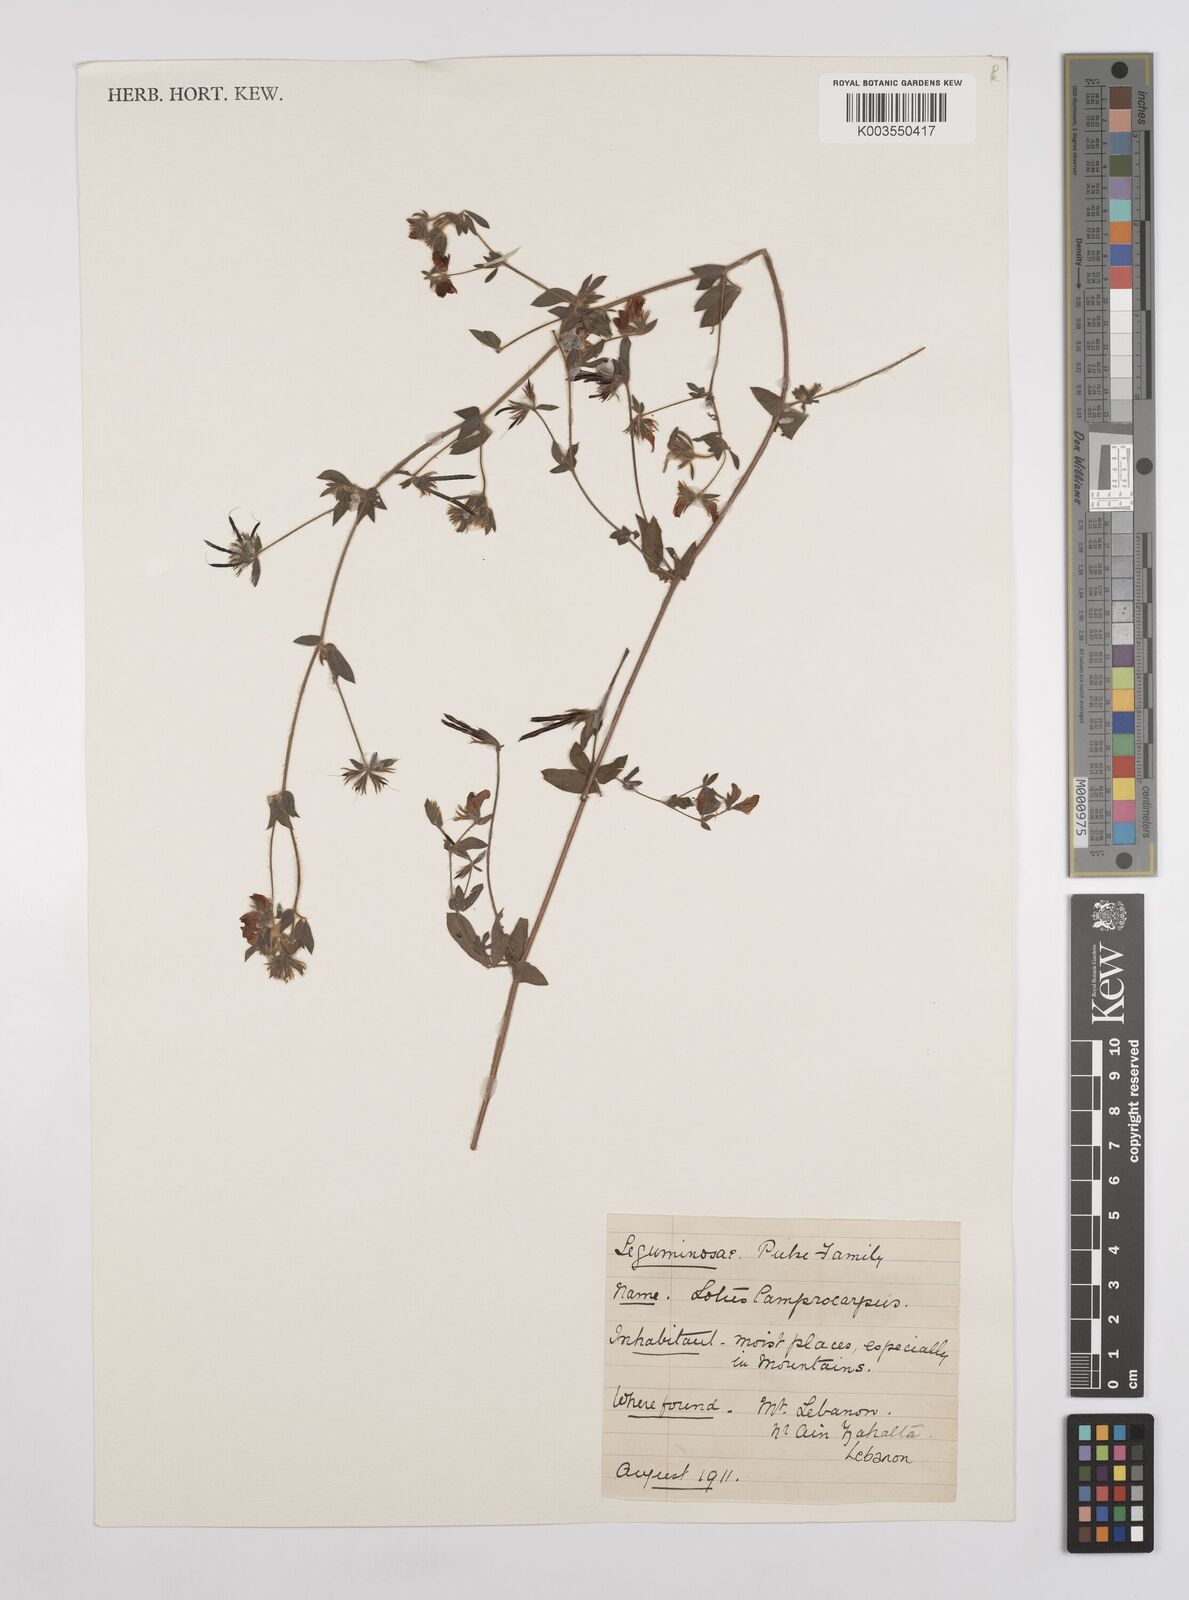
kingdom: Plantae
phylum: Tracheophyta
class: Magnoliopsida
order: Fabales
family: Fabaceae
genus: Lotus
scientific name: Lotus palustris
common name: Large birds-foot trefoil
